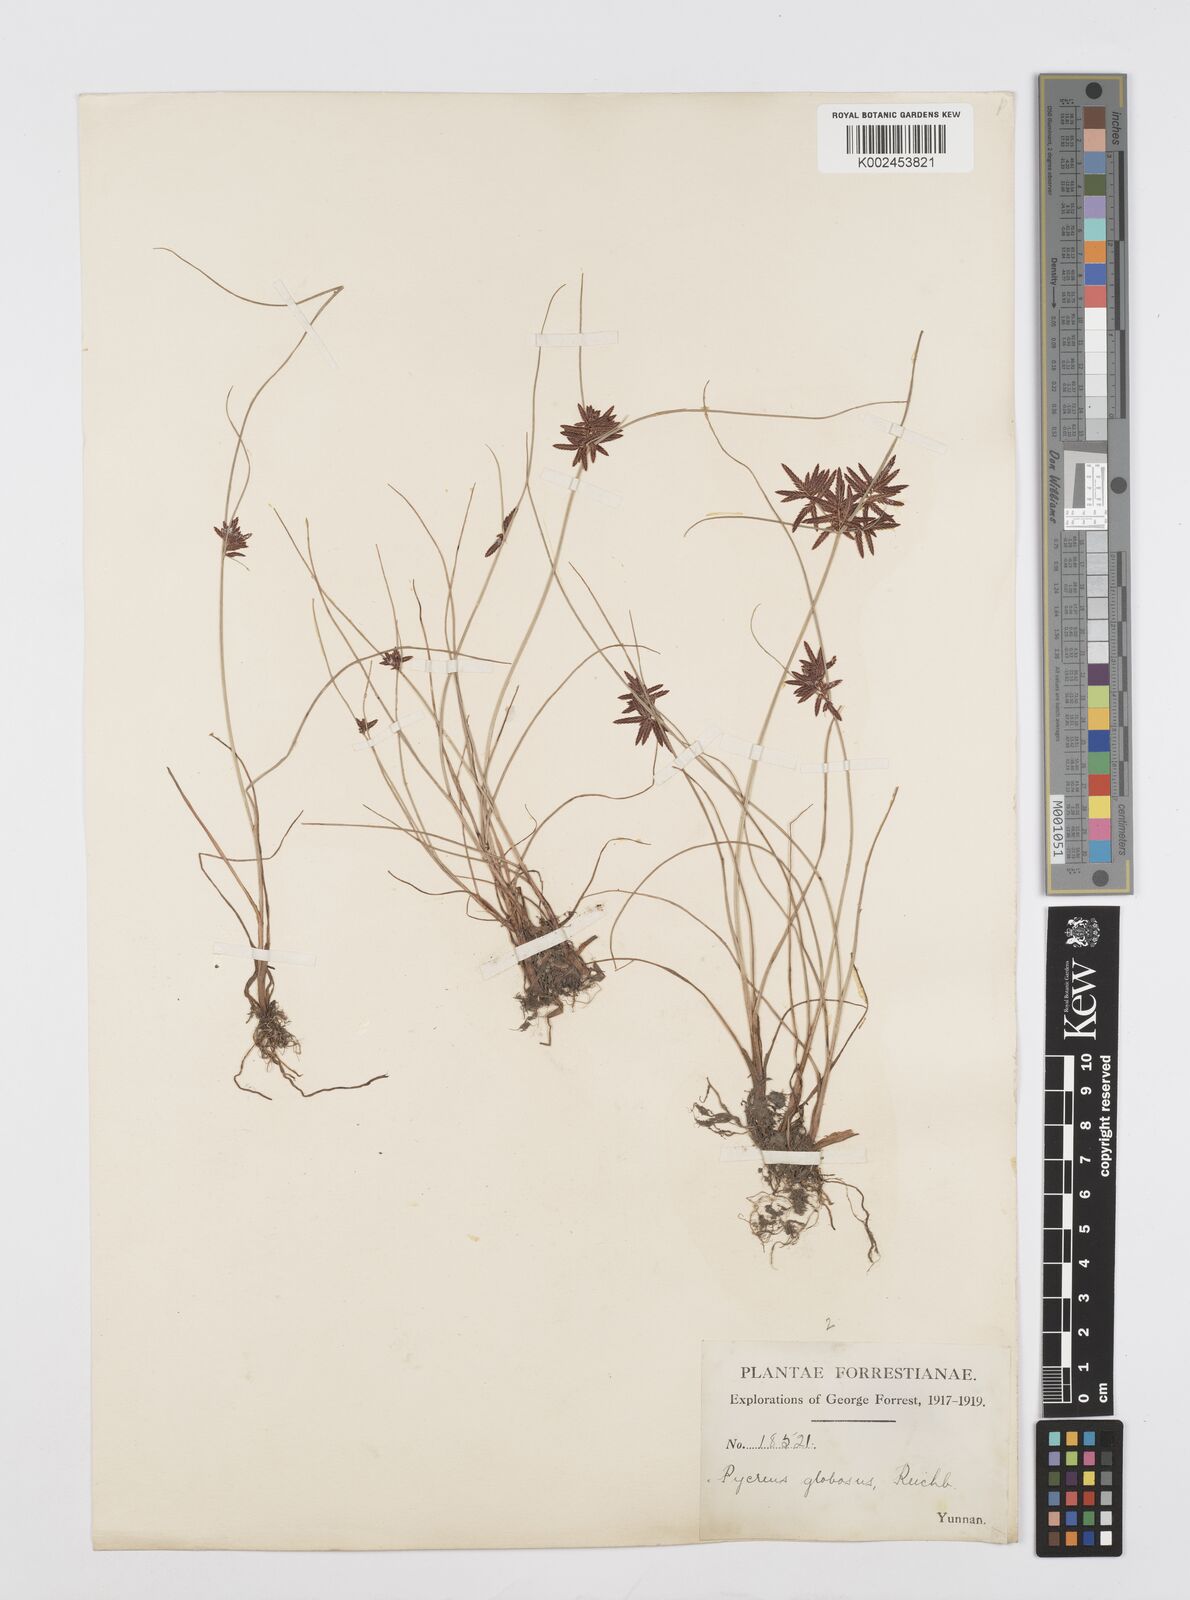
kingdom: Plantae
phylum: Tracheophyta
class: Liliopsida
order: Poales
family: Cyperaceae
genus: Cyperus
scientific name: Cyperus flavidus
